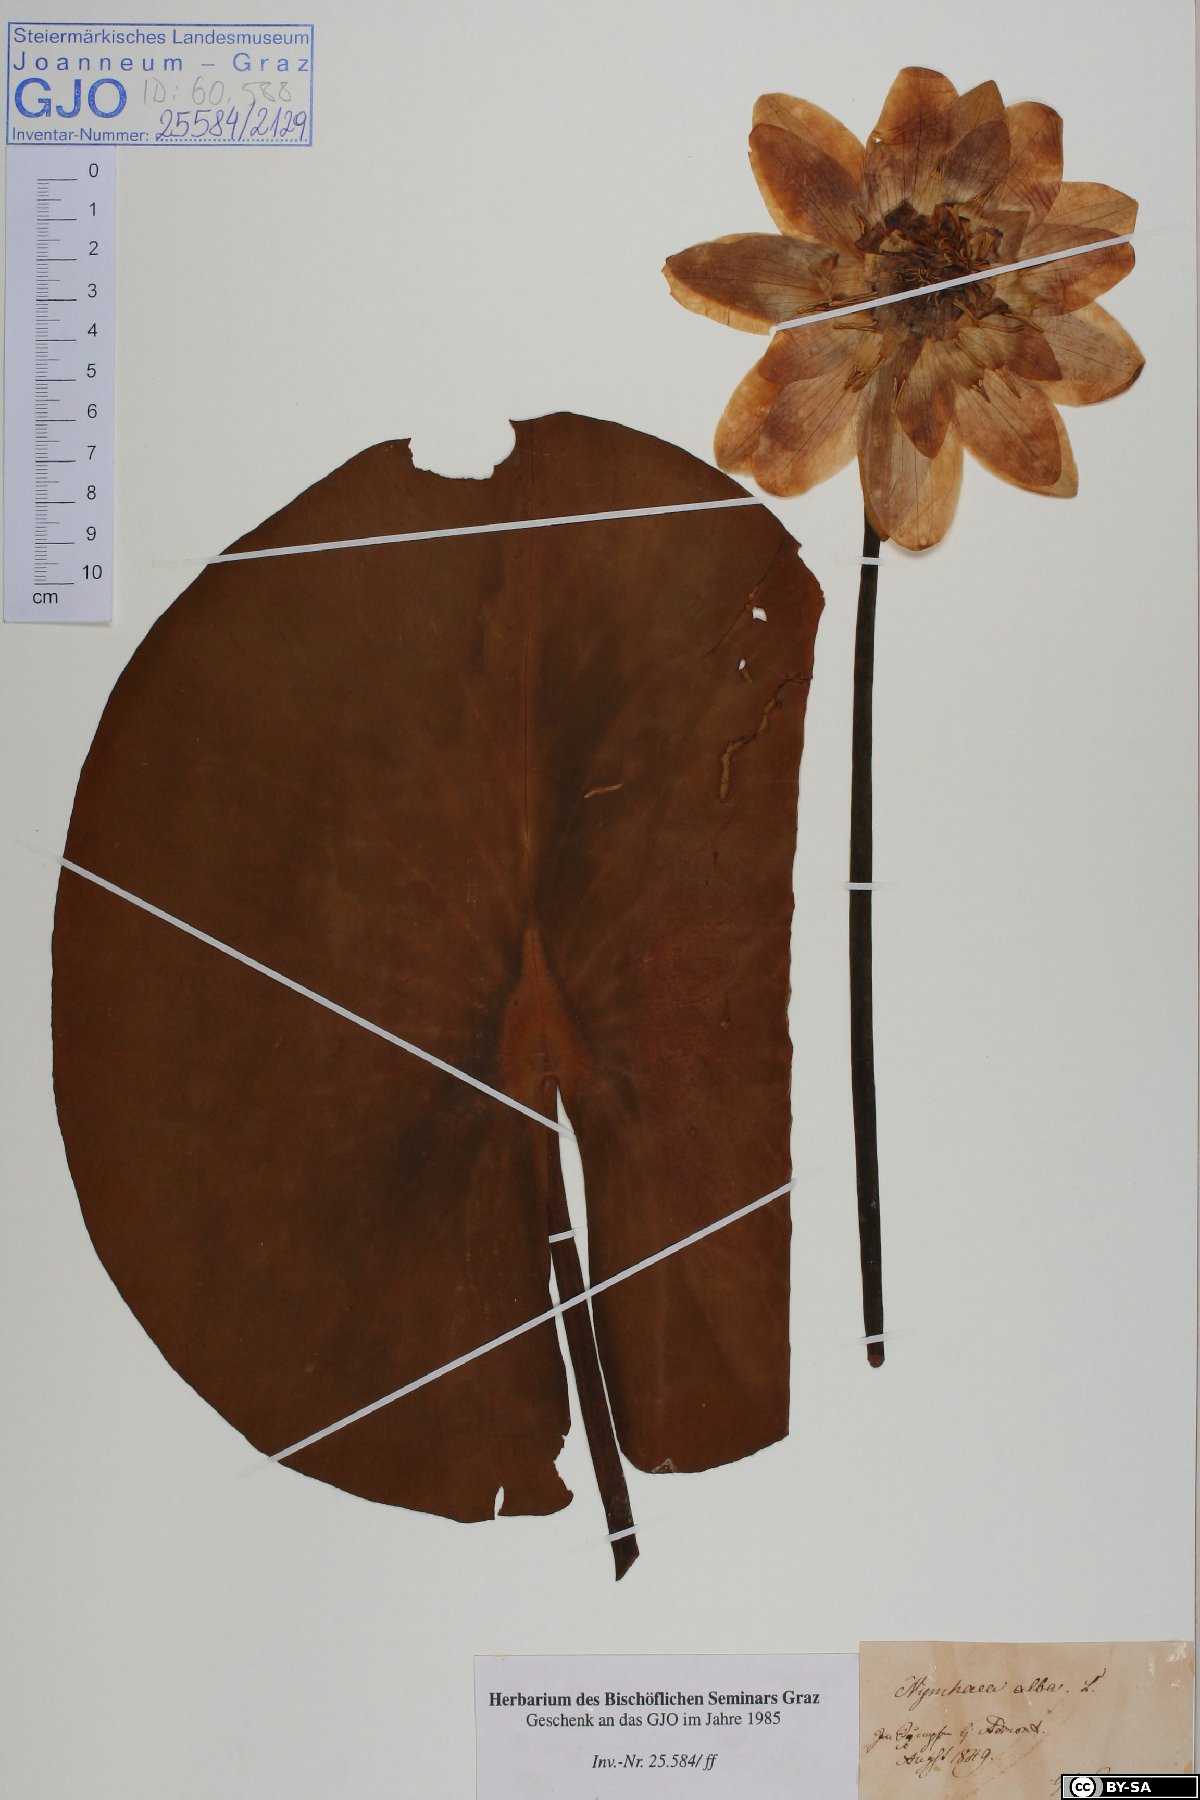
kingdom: Plantae
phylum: Tracheophyta
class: Magnoliopsida
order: Nymphaeales
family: Nymphaeaceae
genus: Nymphaea
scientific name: Nymphaea alba
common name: White water-lily
